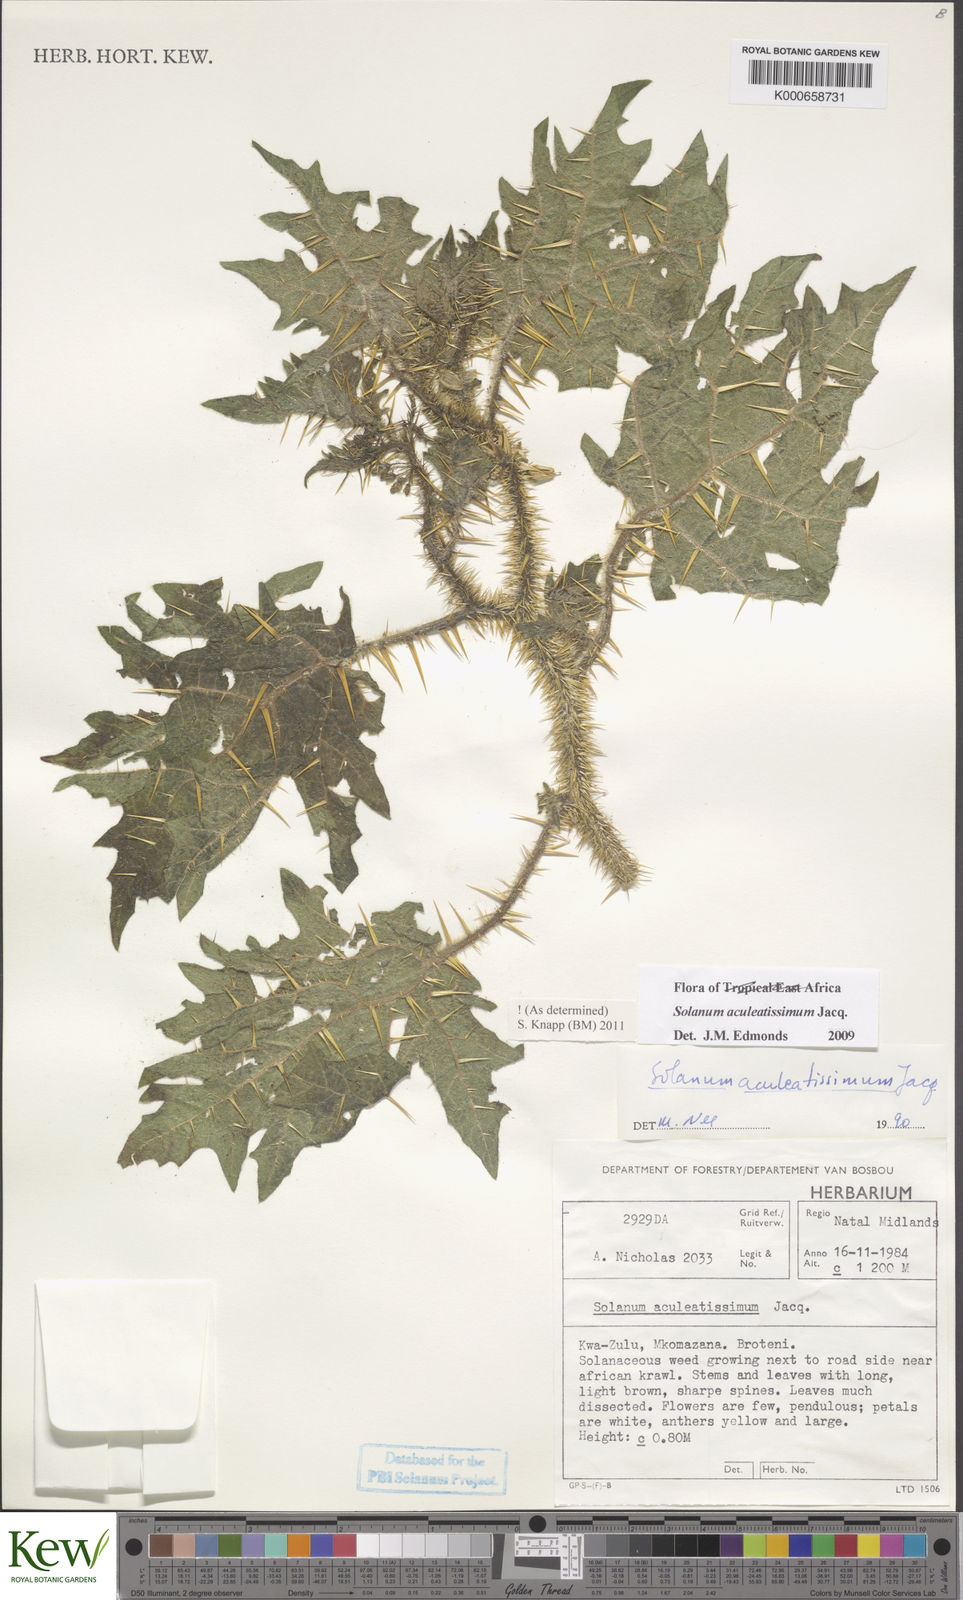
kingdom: Plantae
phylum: Tracheophyta
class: Magnoliopsida
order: Solanales
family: Solanaceae
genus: Solanum
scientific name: Solanum aculeatissimum
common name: Dutch eggplant
